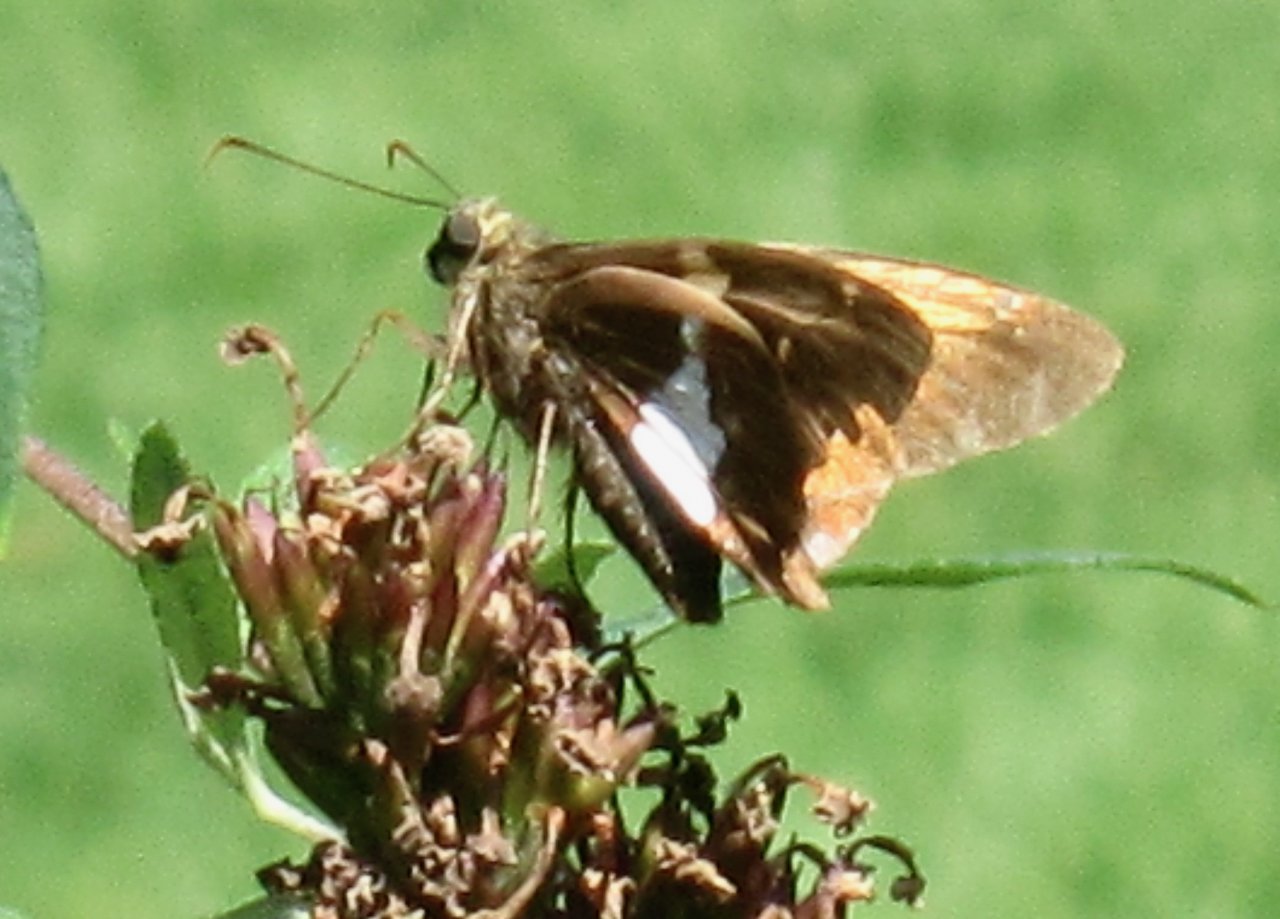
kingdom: Animalia
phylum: Arthropoda
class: Insecta
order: Lepidoptera
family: Hesperiidae
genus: Epargyreus
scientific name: Epargyreus clarus
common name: Silver-spotted Skipper
